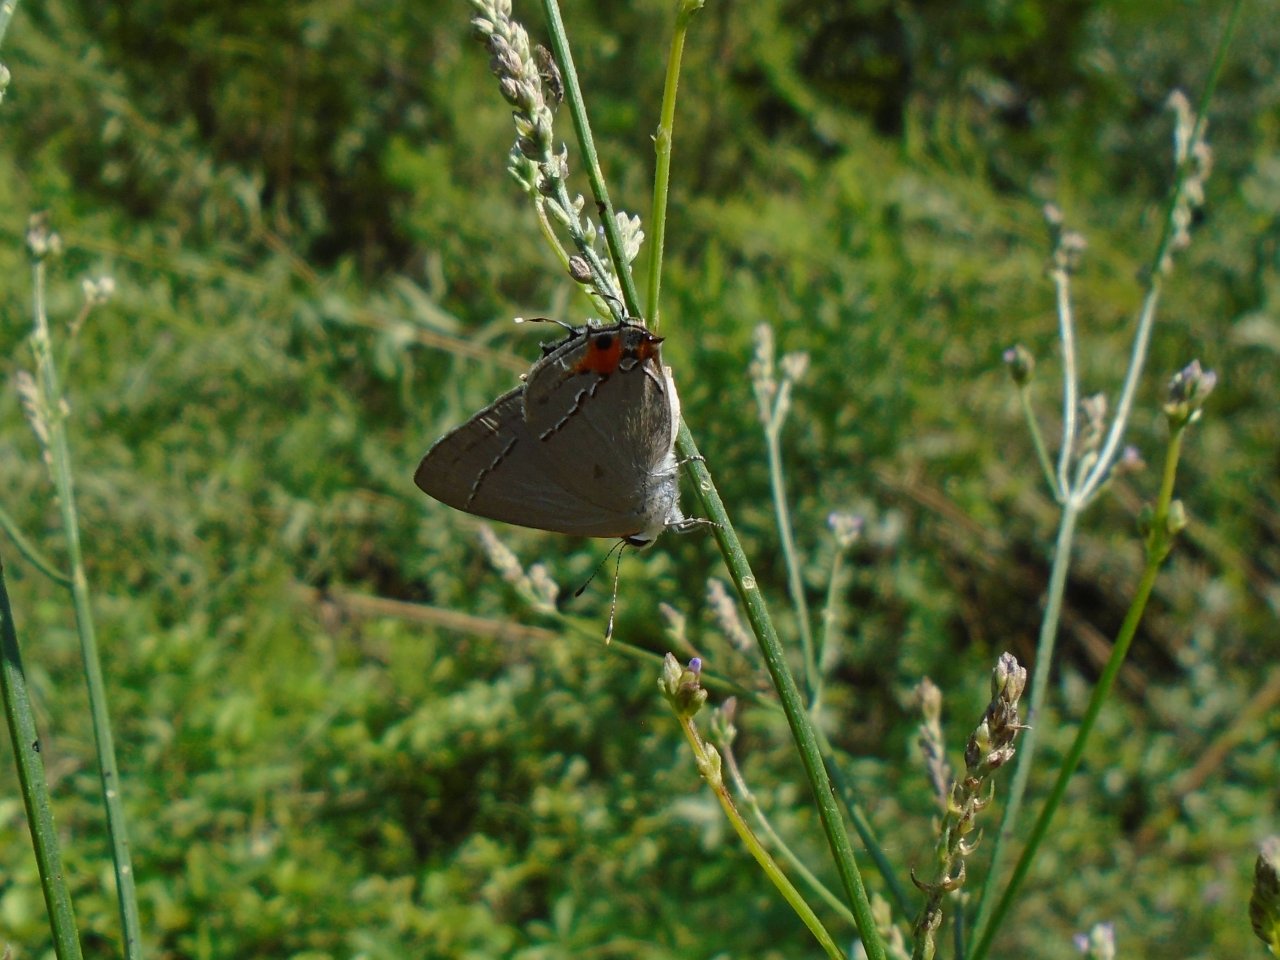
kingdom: Animalia
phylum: Arthropoda
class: Insecta
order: Lepidoptera
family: Lycaenidae
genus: Strymon
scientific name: Strymon melinus
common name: Gray Hairstreak
